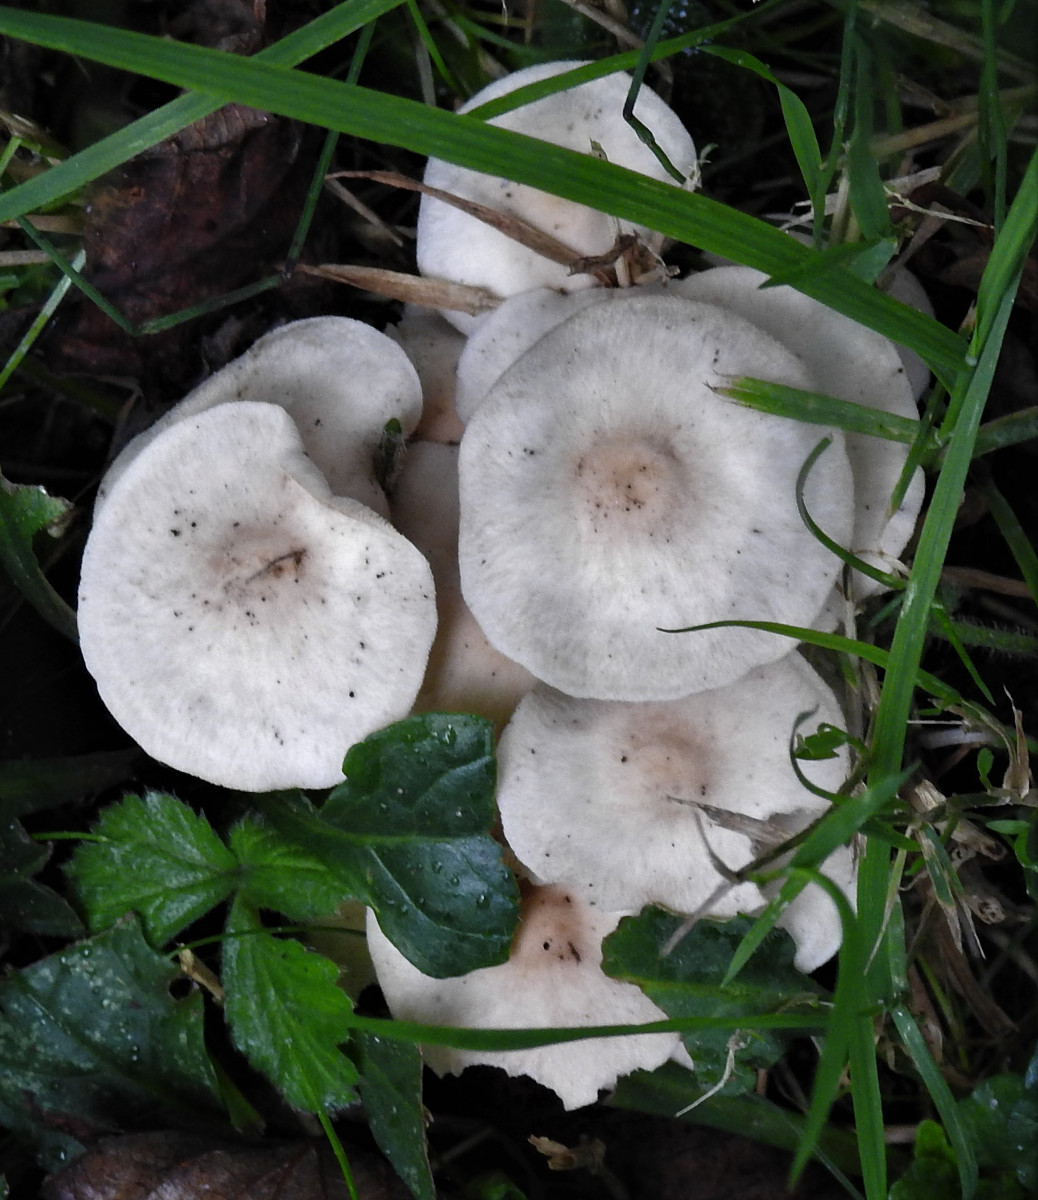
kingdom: Fungi
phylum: Basidiomycota
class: Agaricomycetes
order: Agaricales
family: Omphalotaceae
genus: Collybiopsis
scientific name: Collybiopsis confluens
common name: knippe-fladhat
